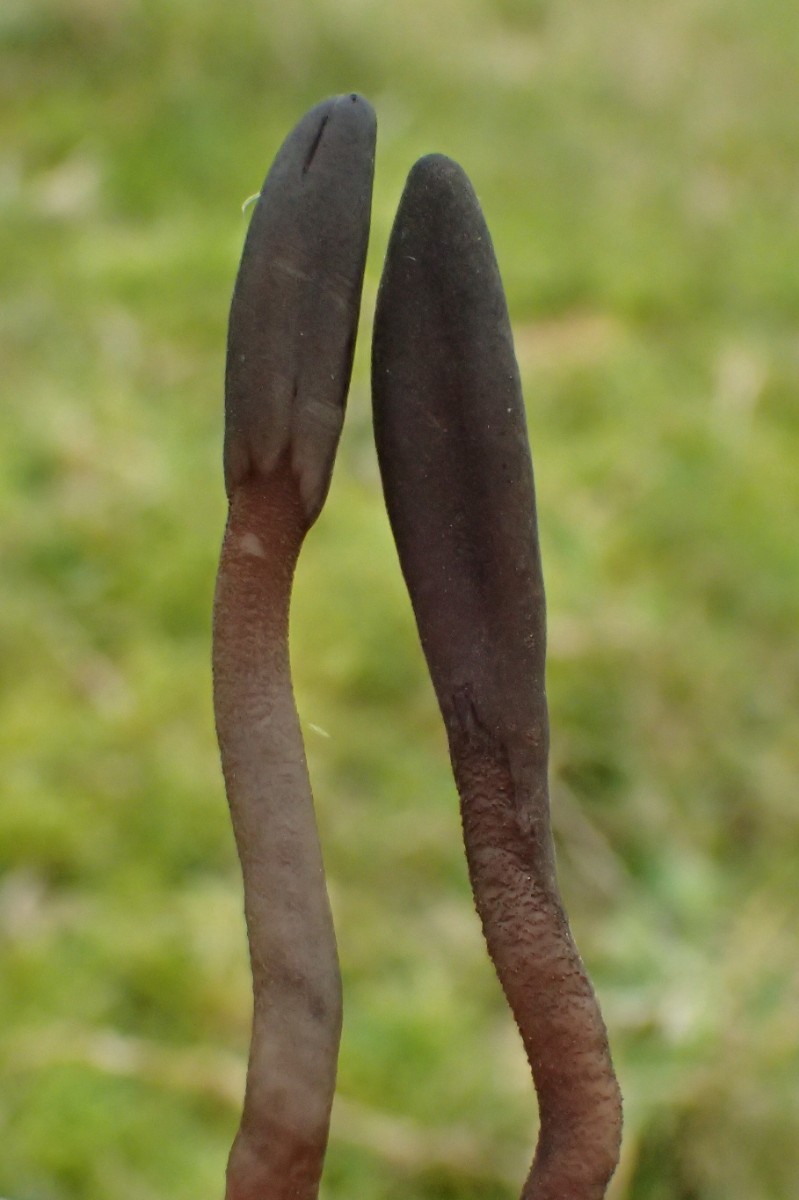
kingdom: Fungi
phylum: Ascomycota
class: Geoglossomycetes
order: Geoglossales
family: Geoglossaceae
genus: Geoglossum
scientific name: Geoglossum fallax
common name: småskællet jordtunge
